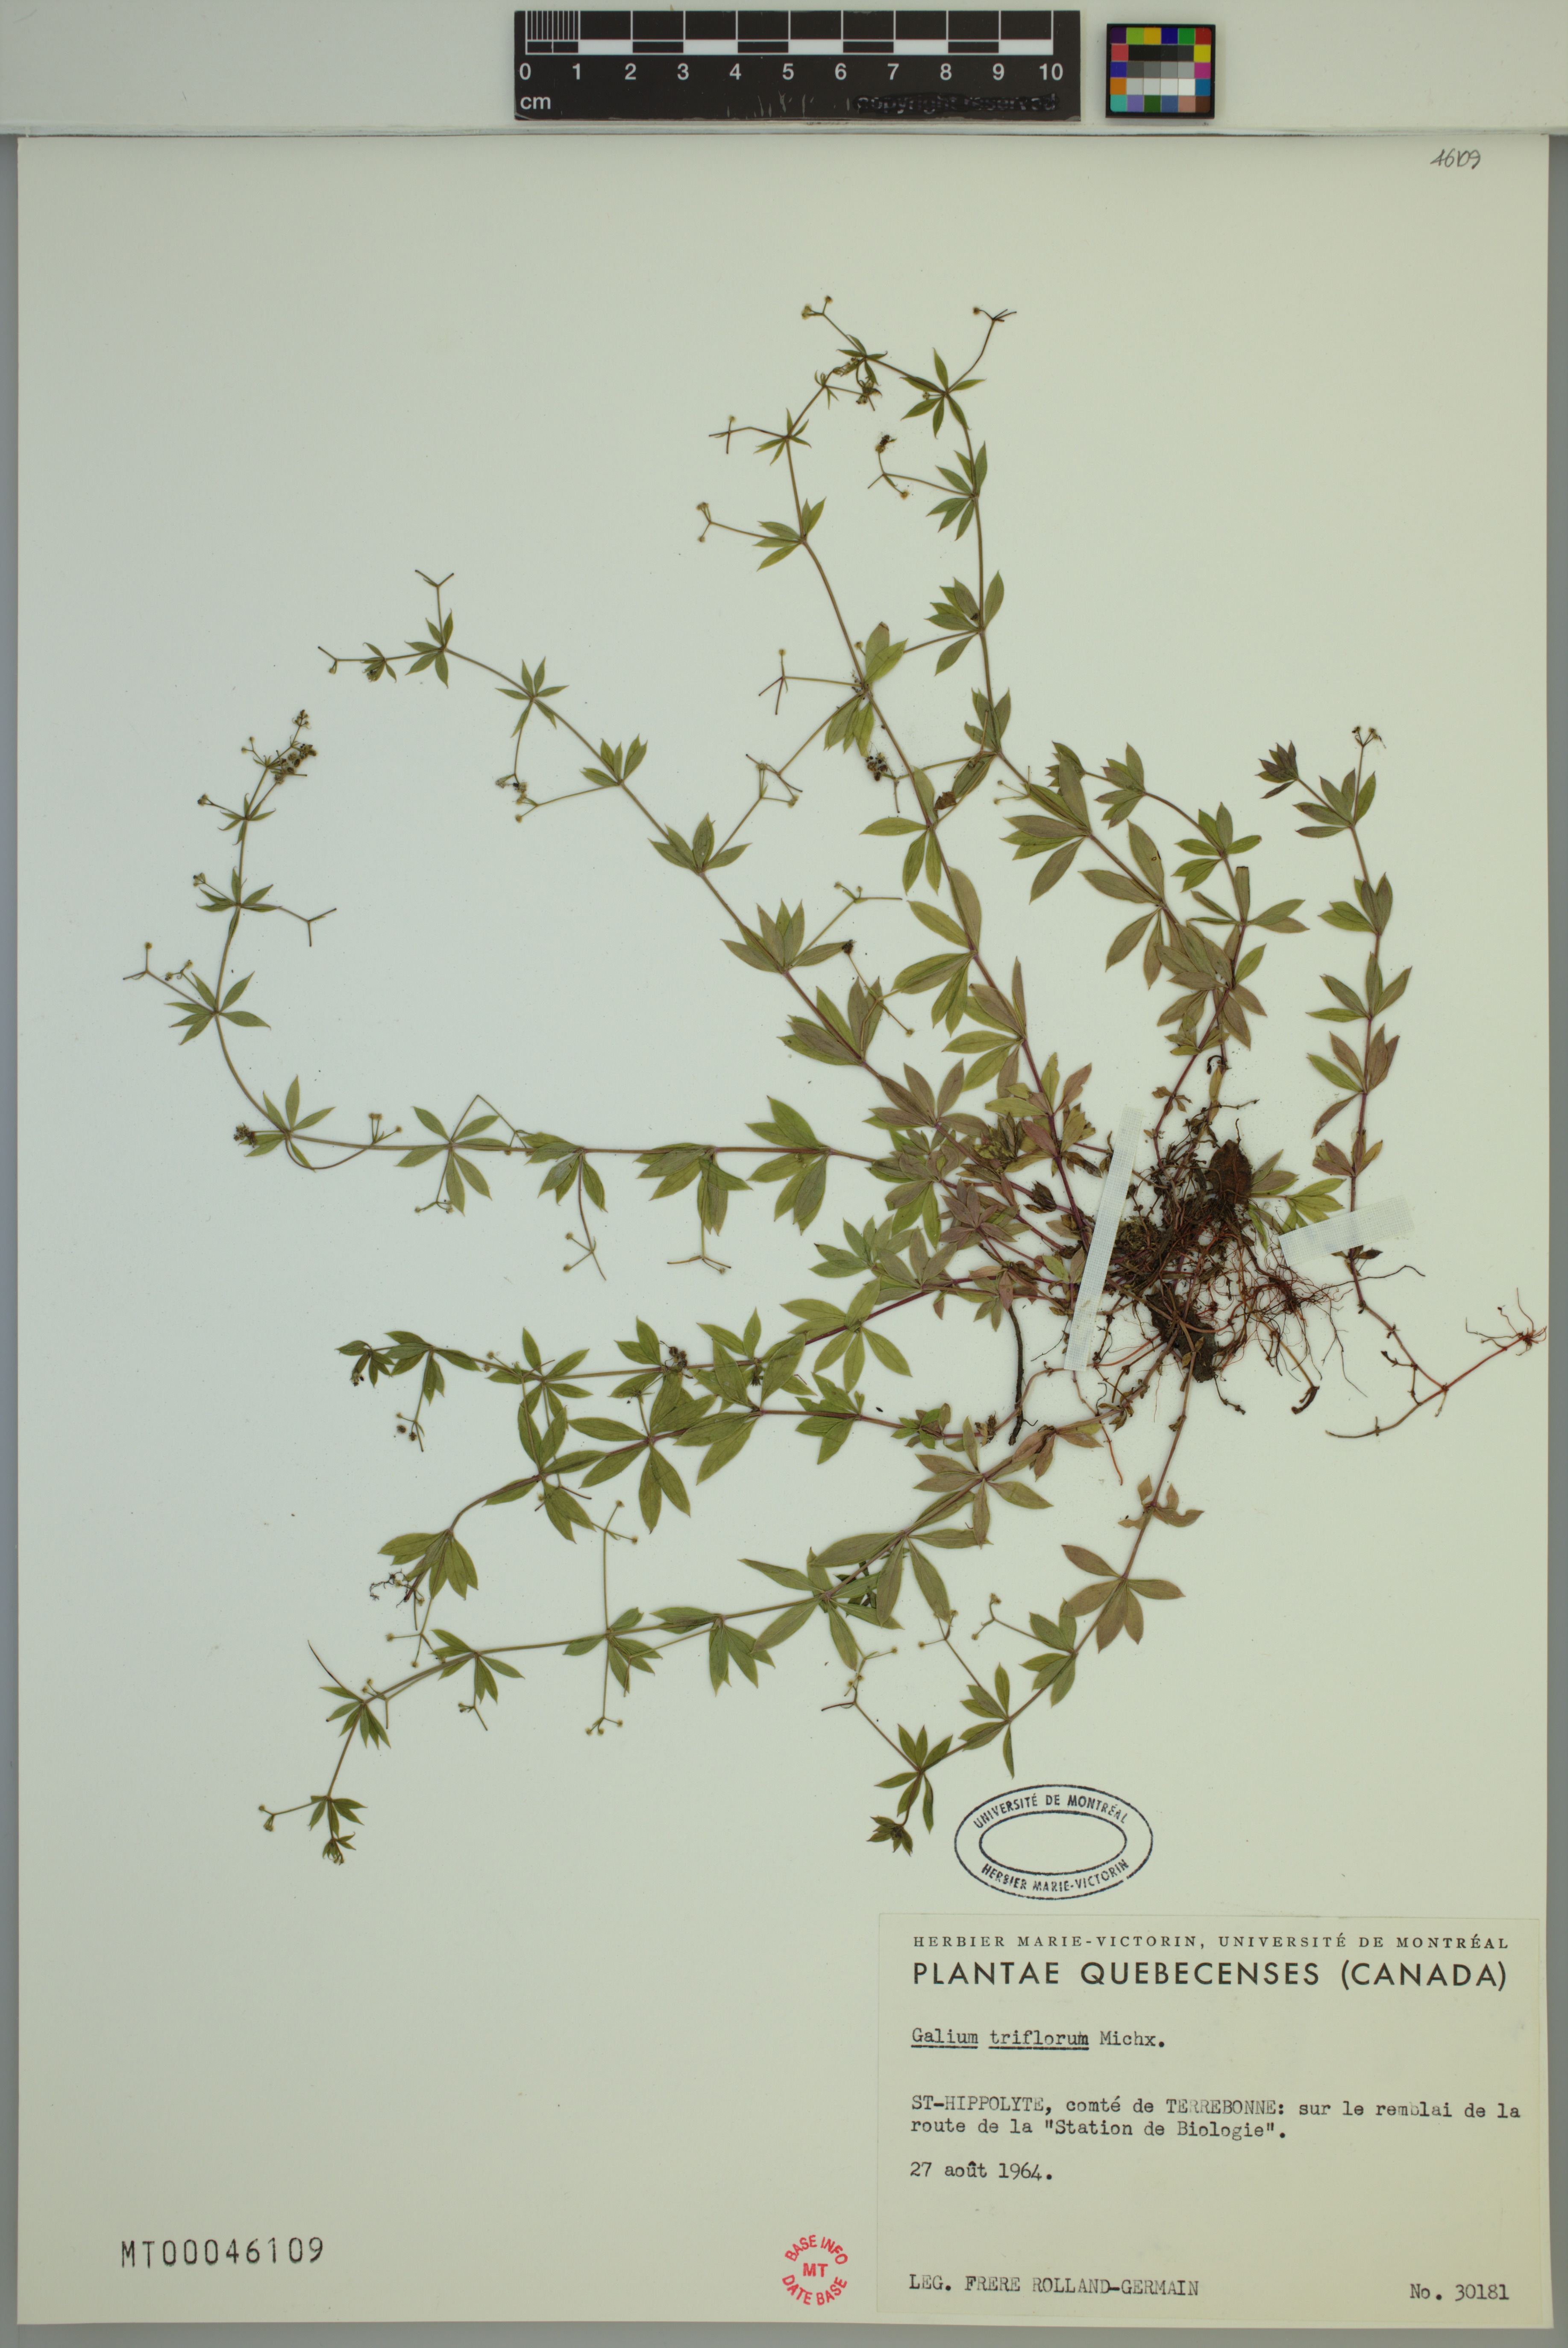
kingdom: Plantae
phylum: Tracheophyta
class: Magnoliopsida
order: Gentianales
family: Rubiaceae
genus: Galium
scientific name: Galium triflorum
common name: Fragrant bedstraw
